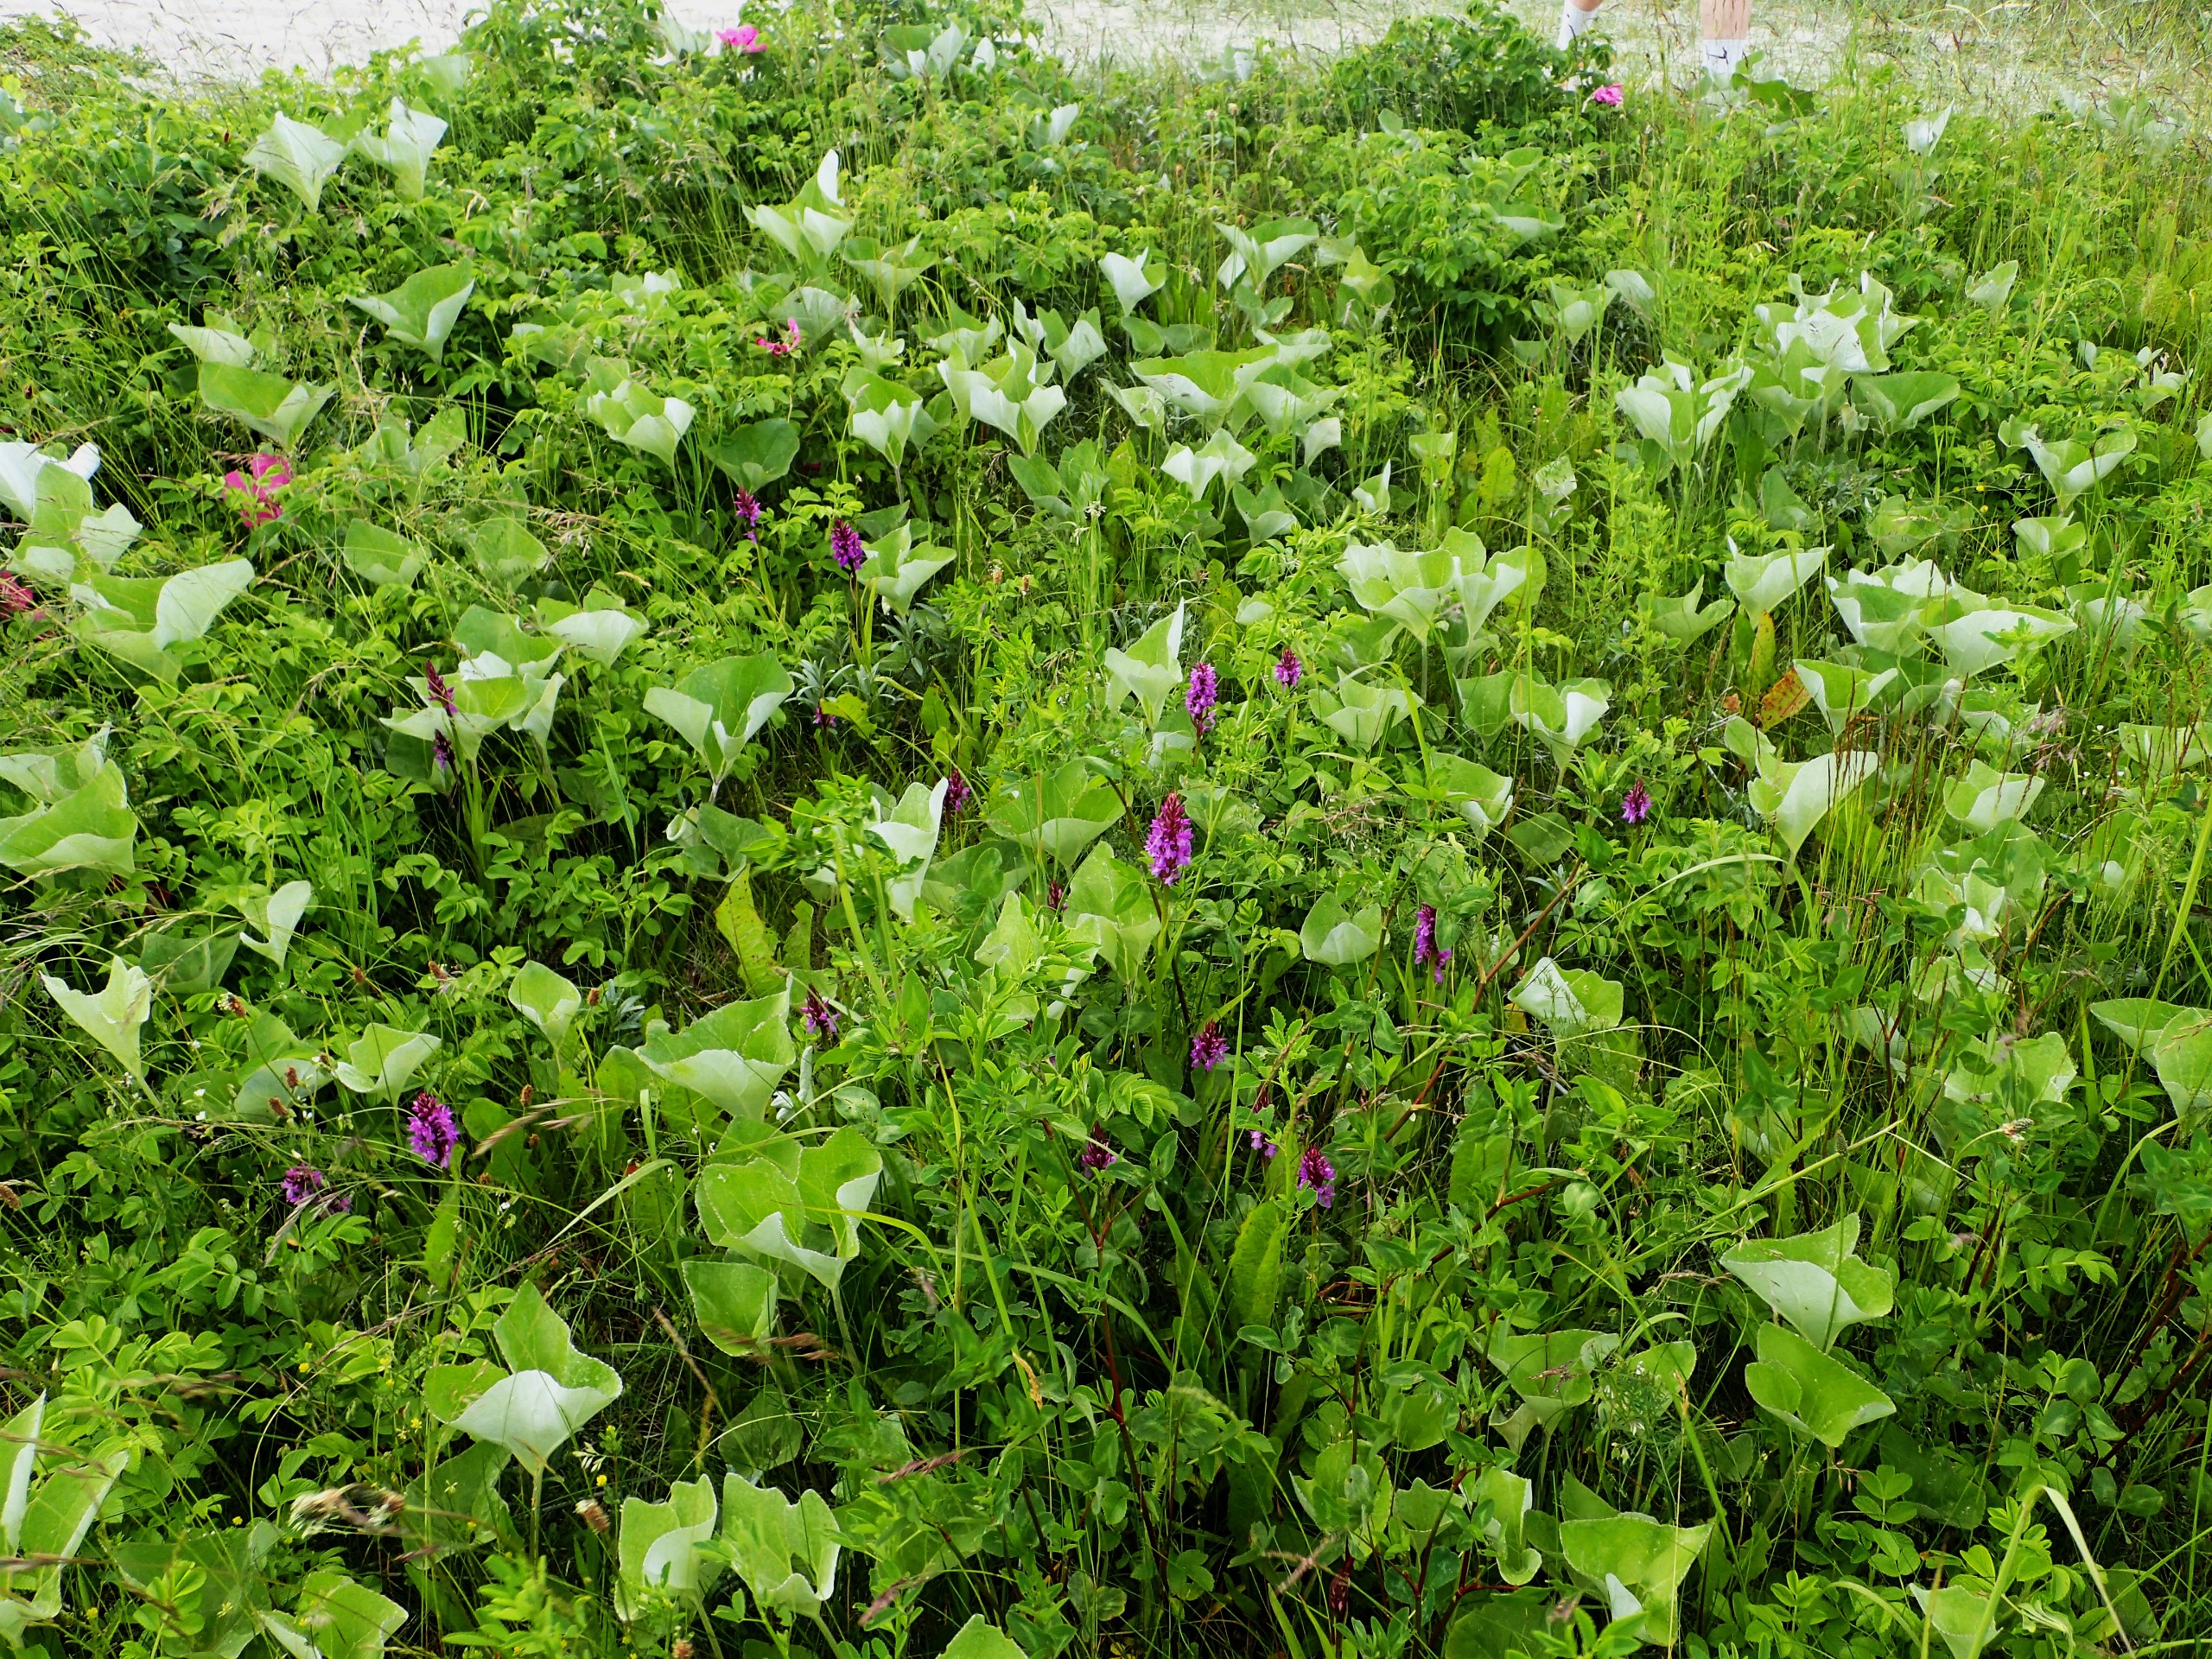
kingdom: Plantae
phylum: Tracheophyta
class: Magnoliopsida
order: Asterales
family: Asteraceae
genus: Petasites
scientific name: Petasites spurius
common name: Filtet hestehov
